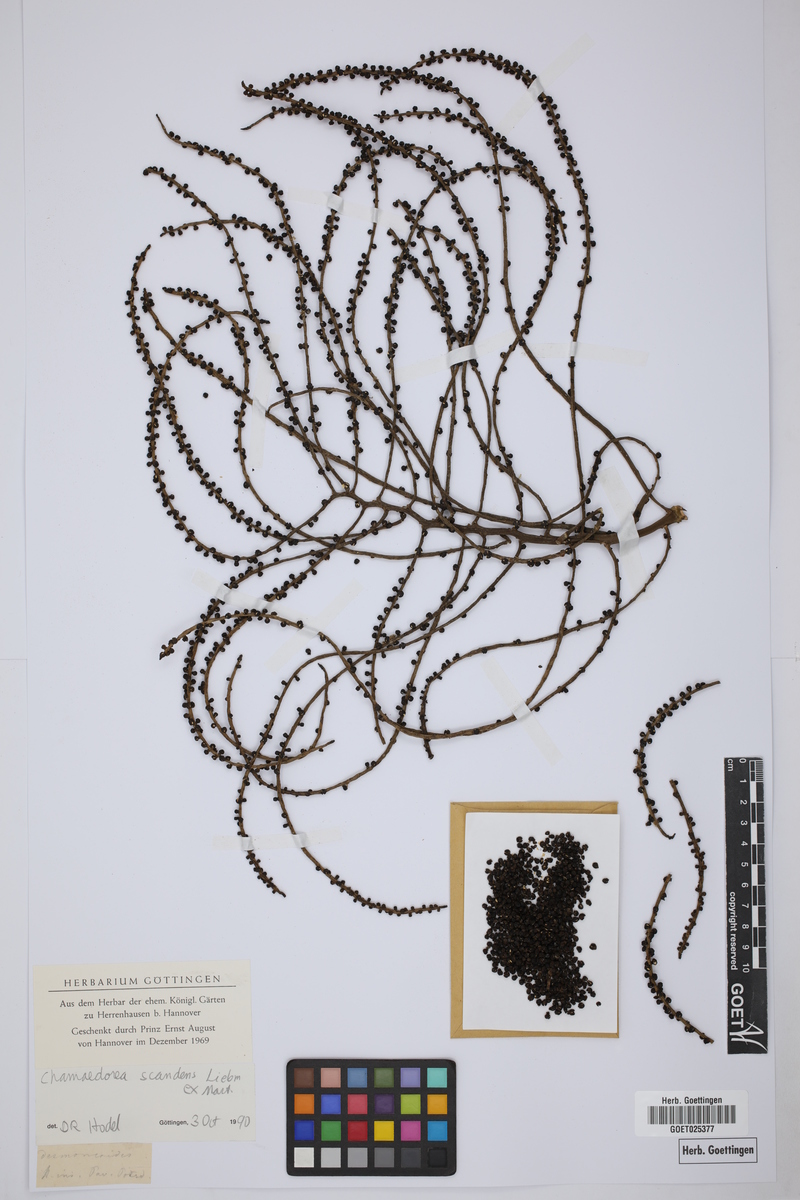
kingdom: Plantae
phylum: Tracheophyta
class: Liliopsida
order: Arecales
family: Arecaceae
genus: Chamaedorea
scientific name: Chamaedorea elatior
